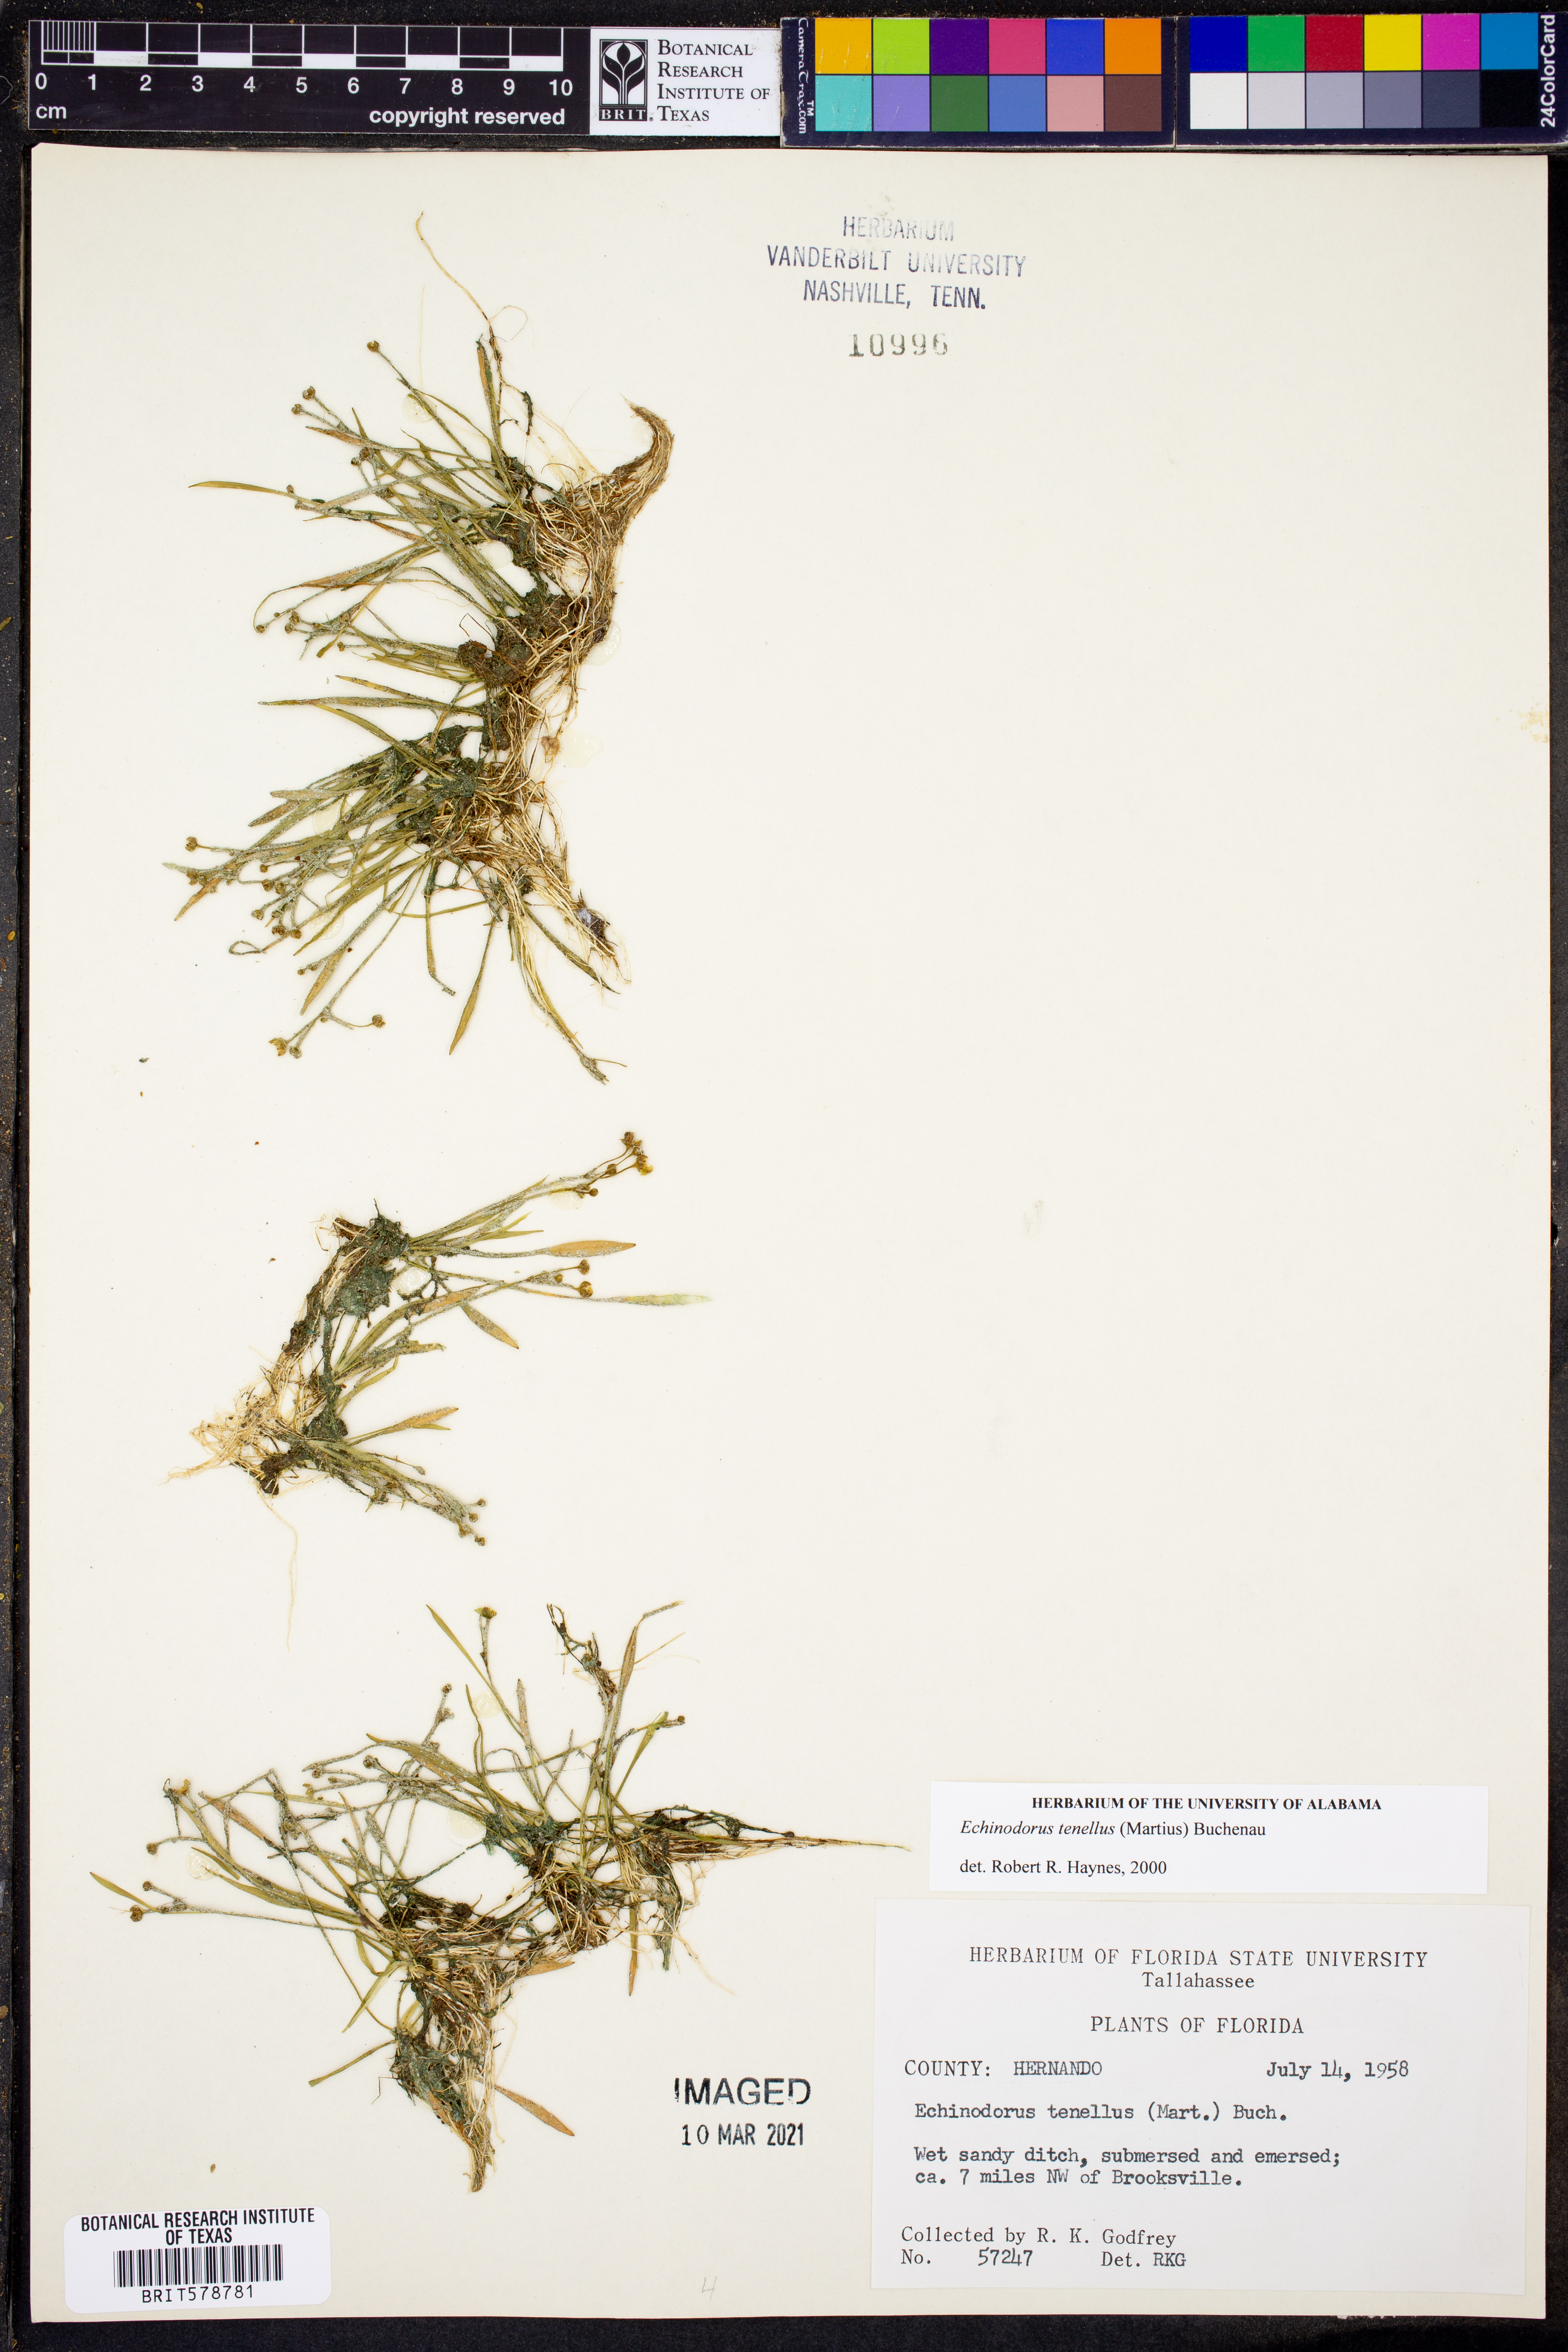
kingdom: Plantae
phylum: Tracheophyta
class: Liliopsida
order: Alismatales
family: Alismataceae
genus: Helanthium
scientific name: Helanthium tenellum
